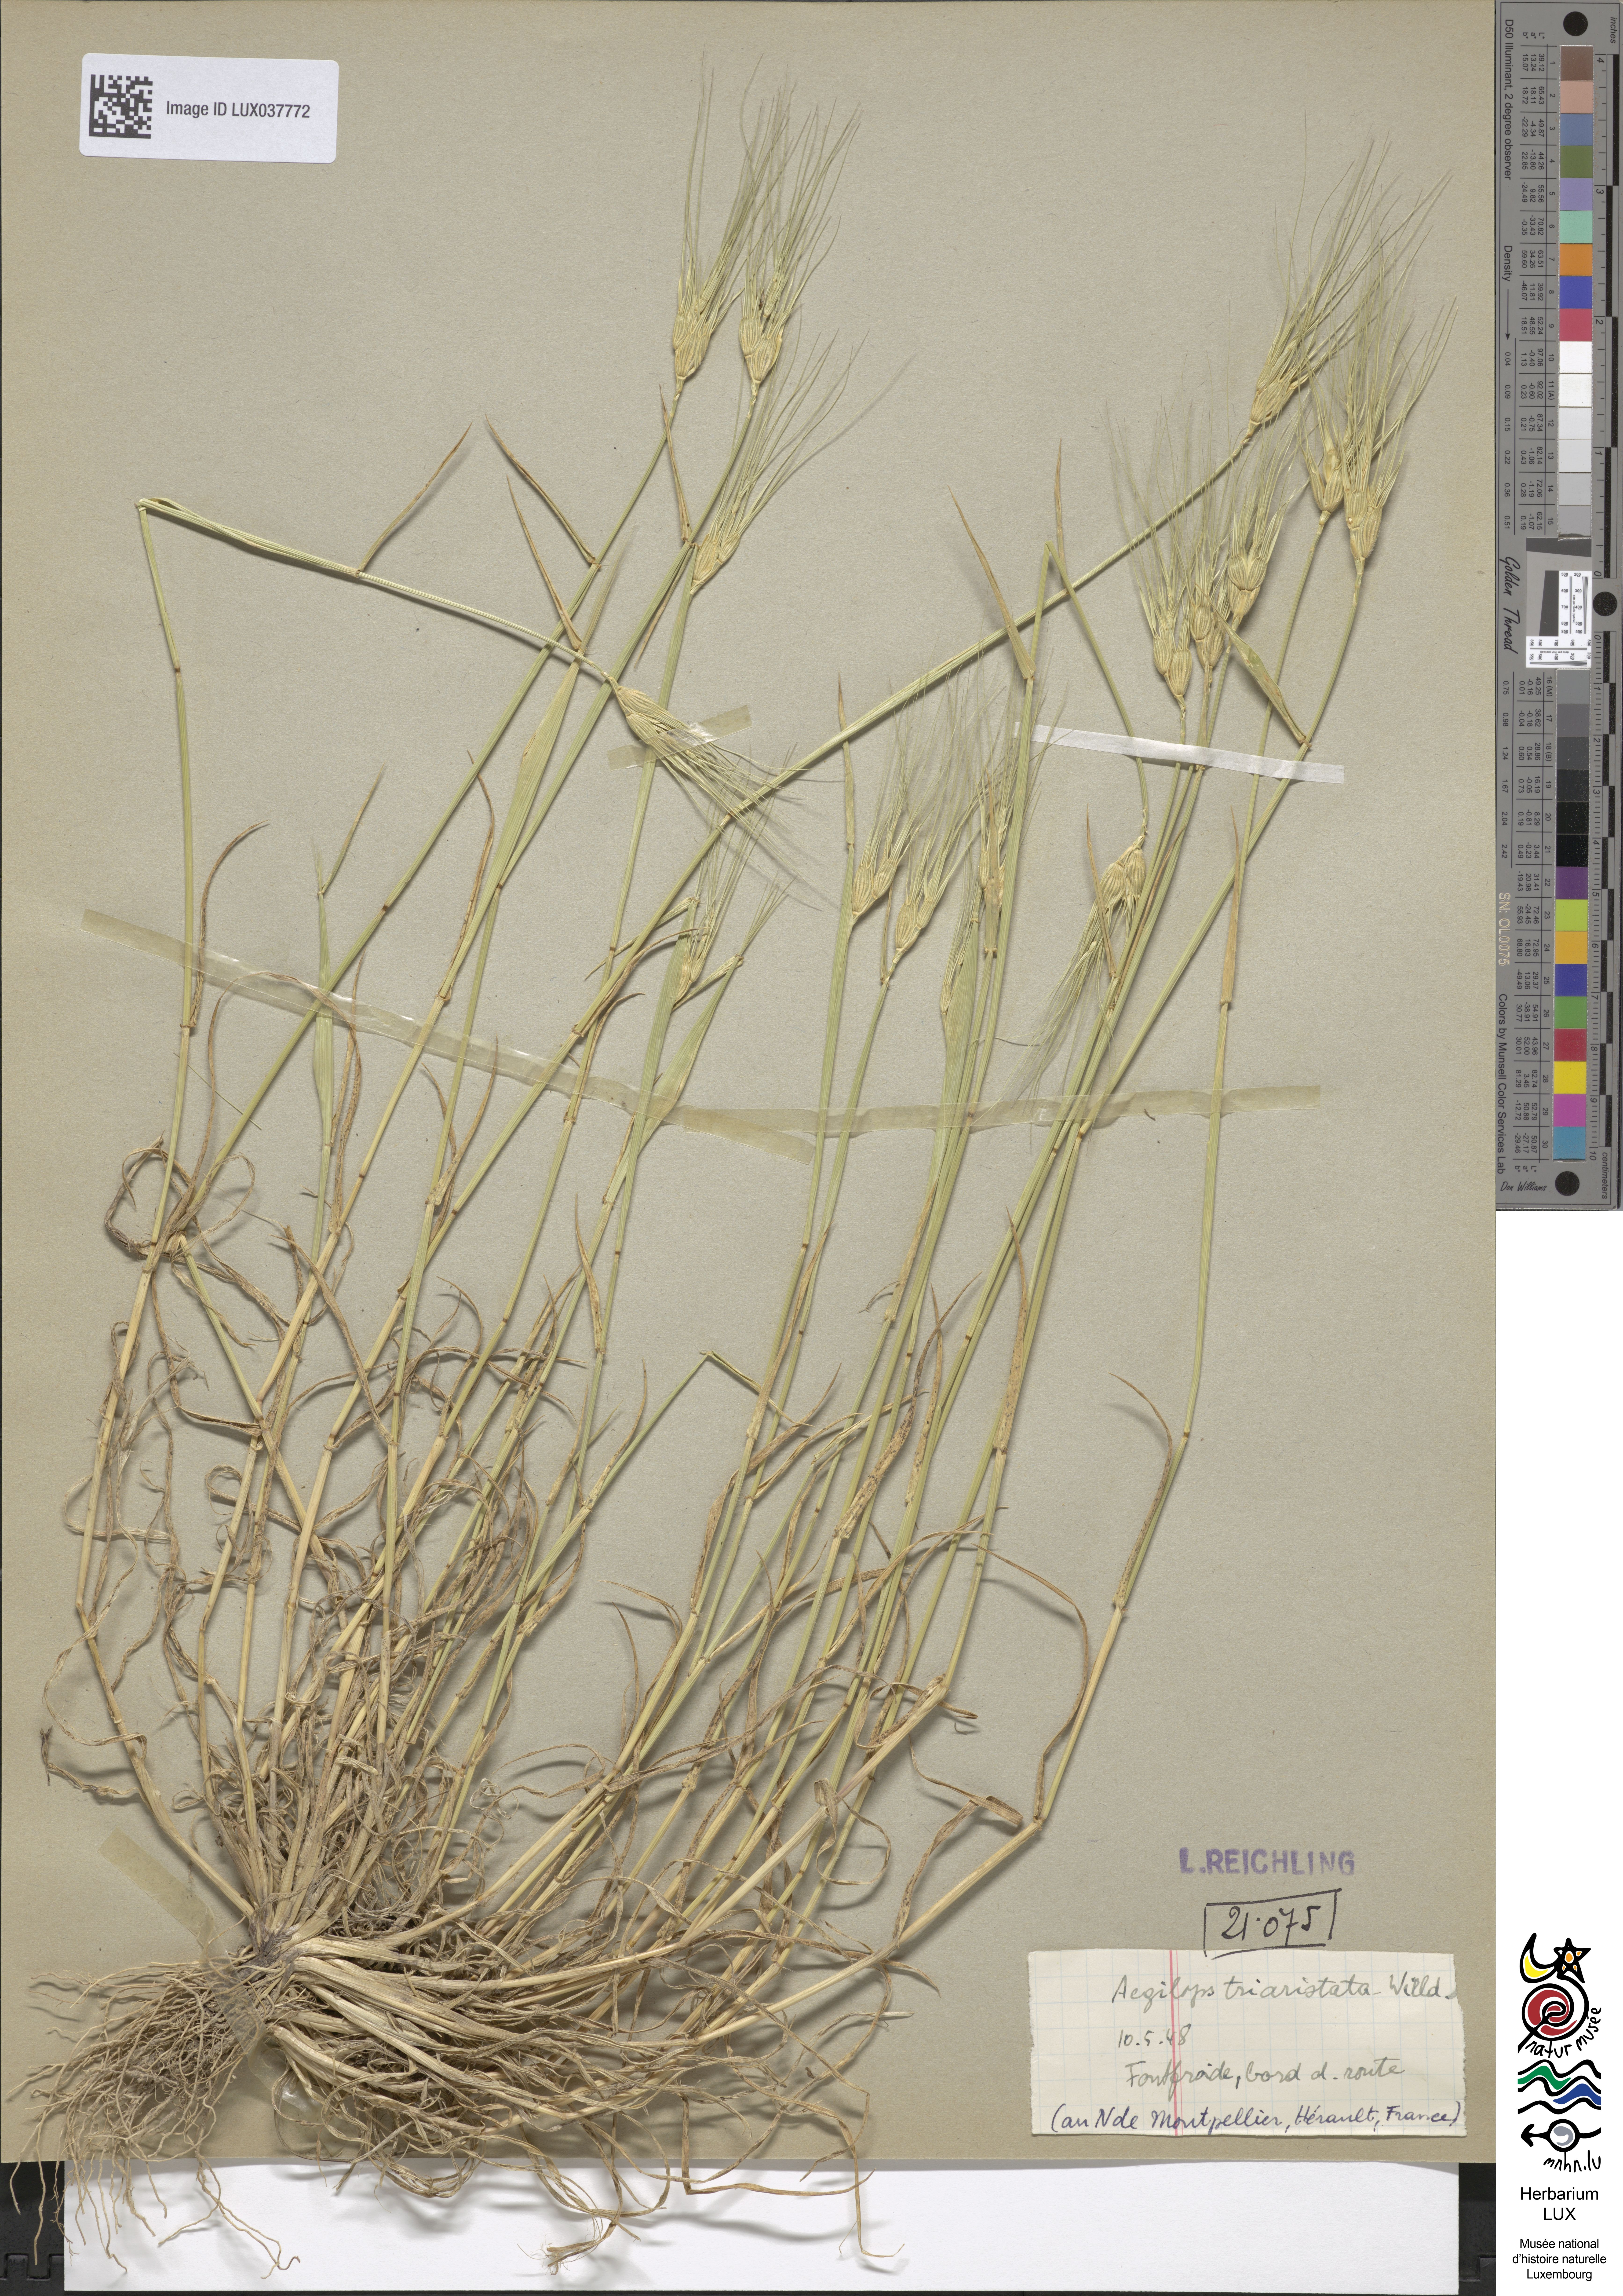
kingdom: Plantae
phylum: Tracheophyta
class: Liliopsida
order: Poales
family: Poaceae
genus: Aegilops
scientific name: Aegilops neglecta
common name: Three-awn goat grass
